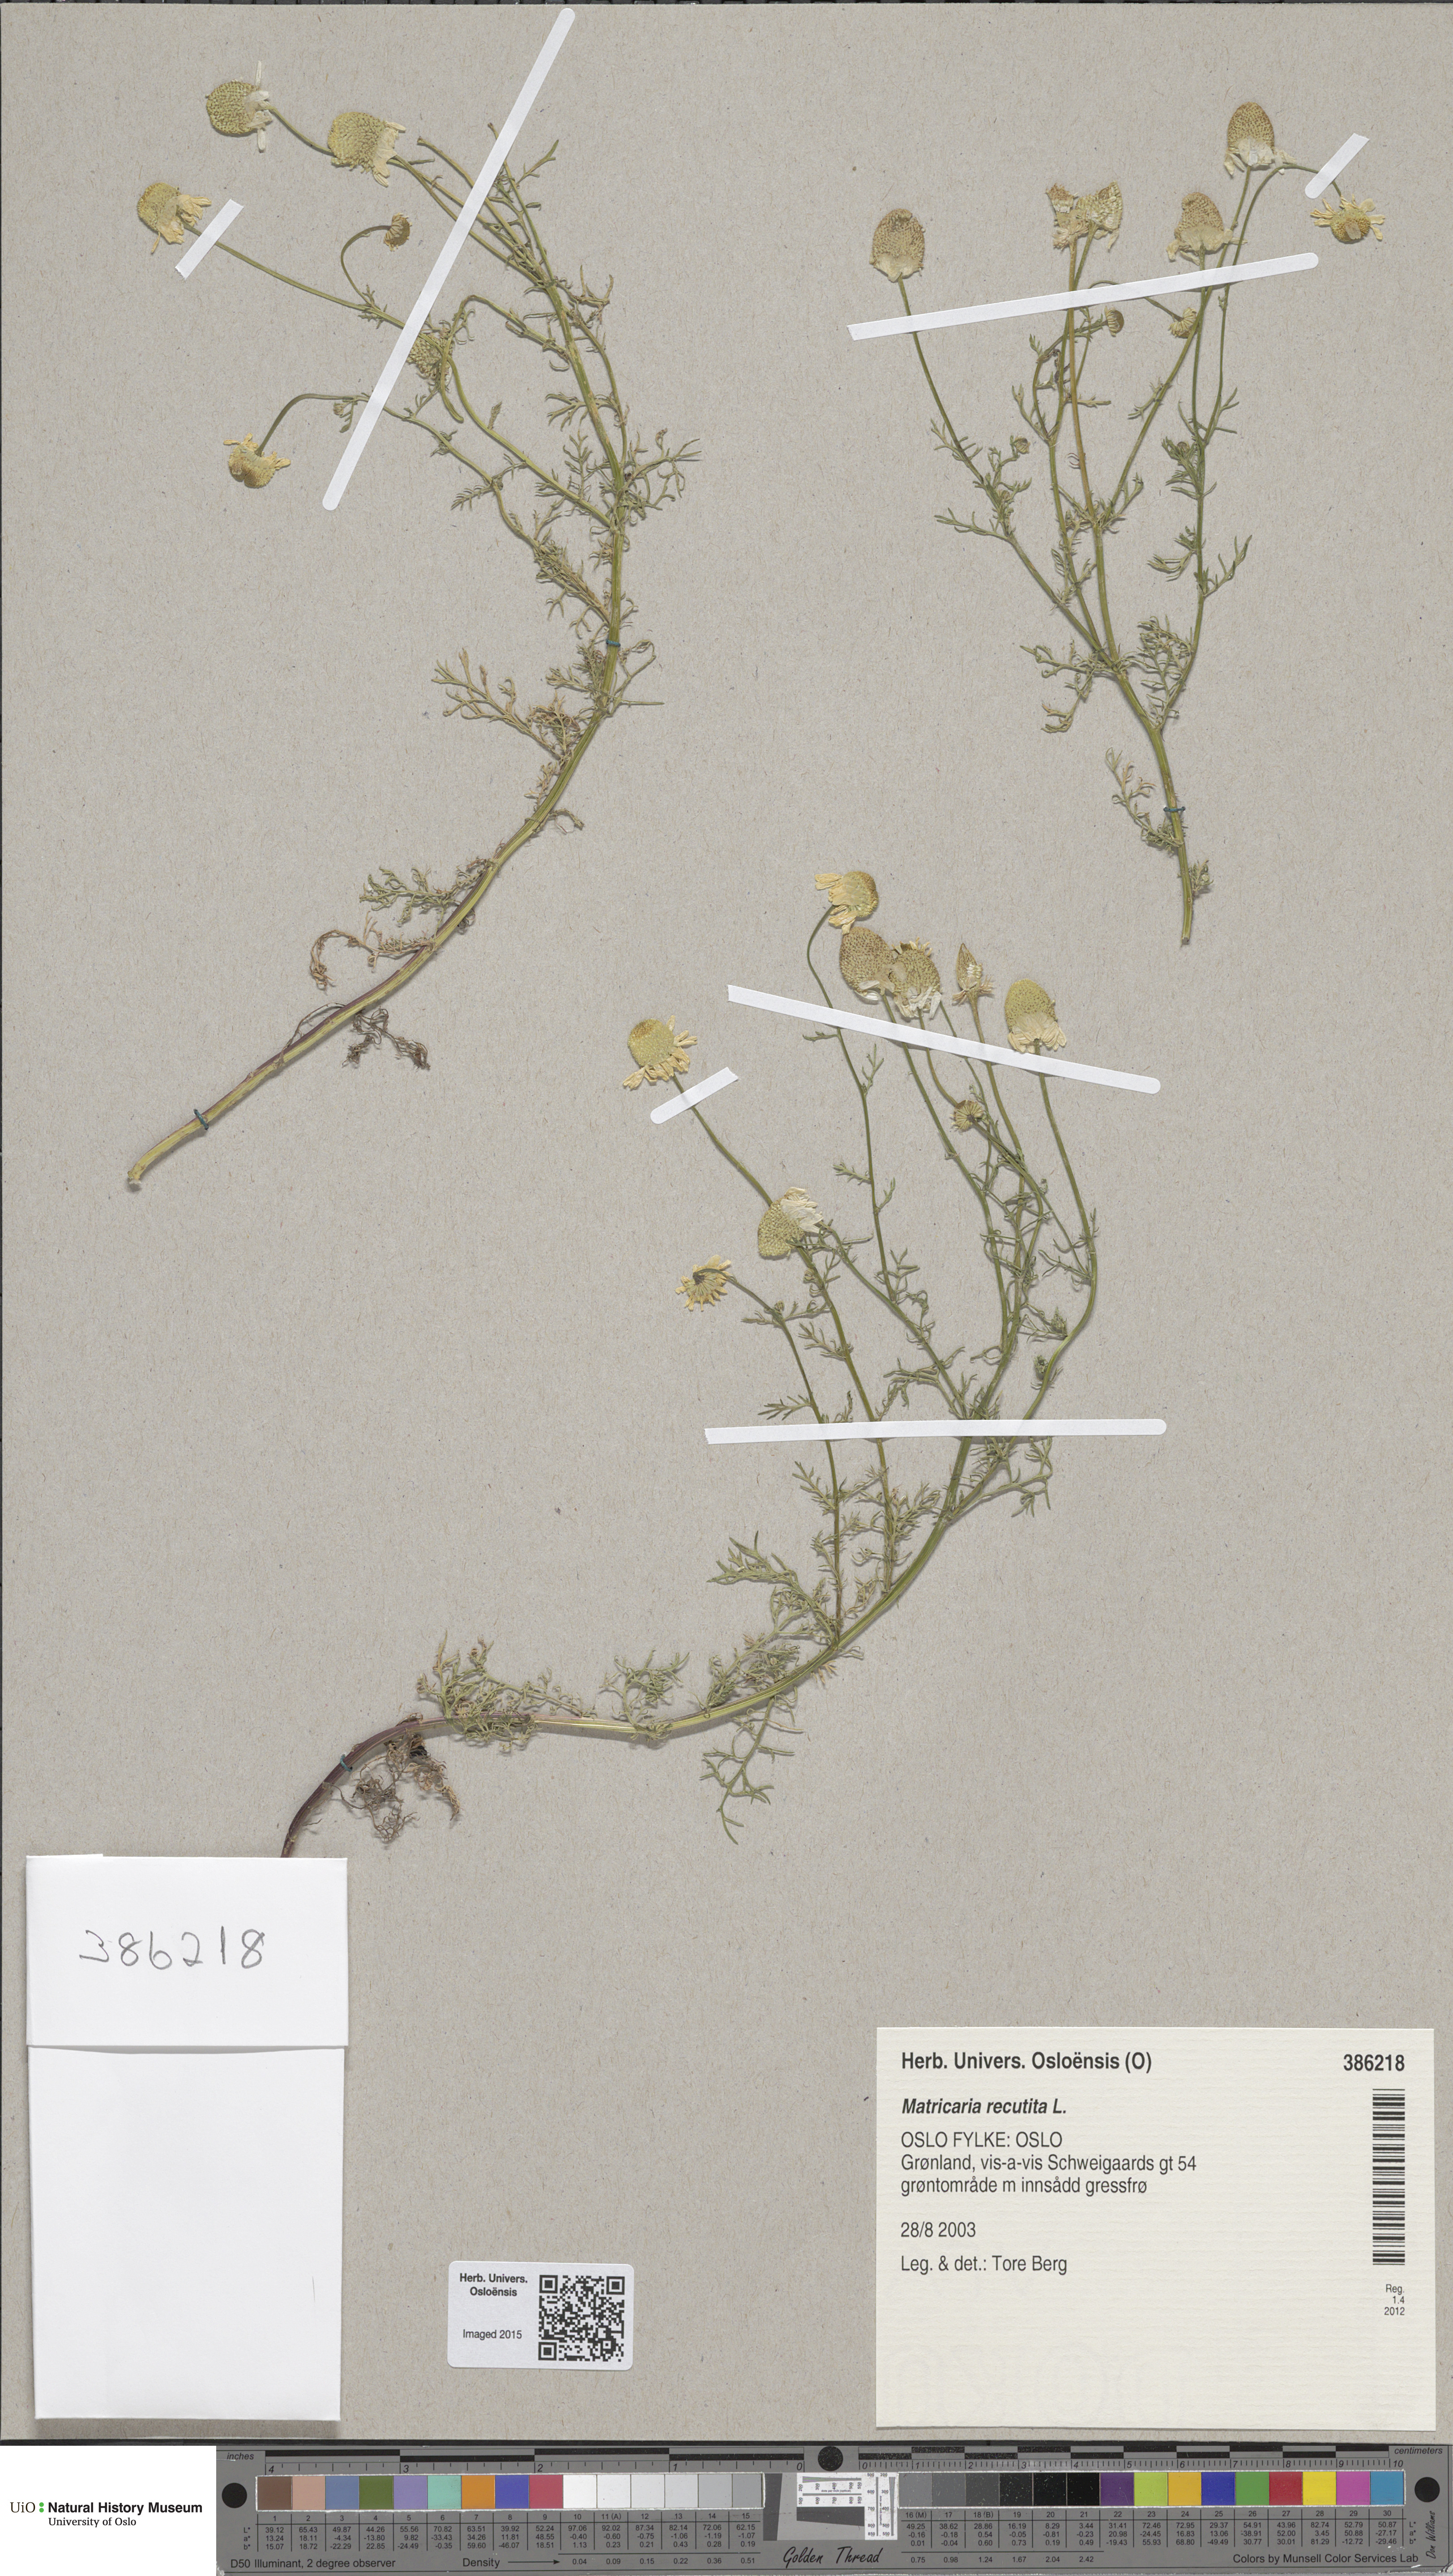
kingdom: Plantae
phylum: Tracheophyta
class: Magnoliopsida
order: Asterales
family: Asteraceae
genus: Matricaria
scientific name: Matricaria chamomilla
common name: Scented mayweed
